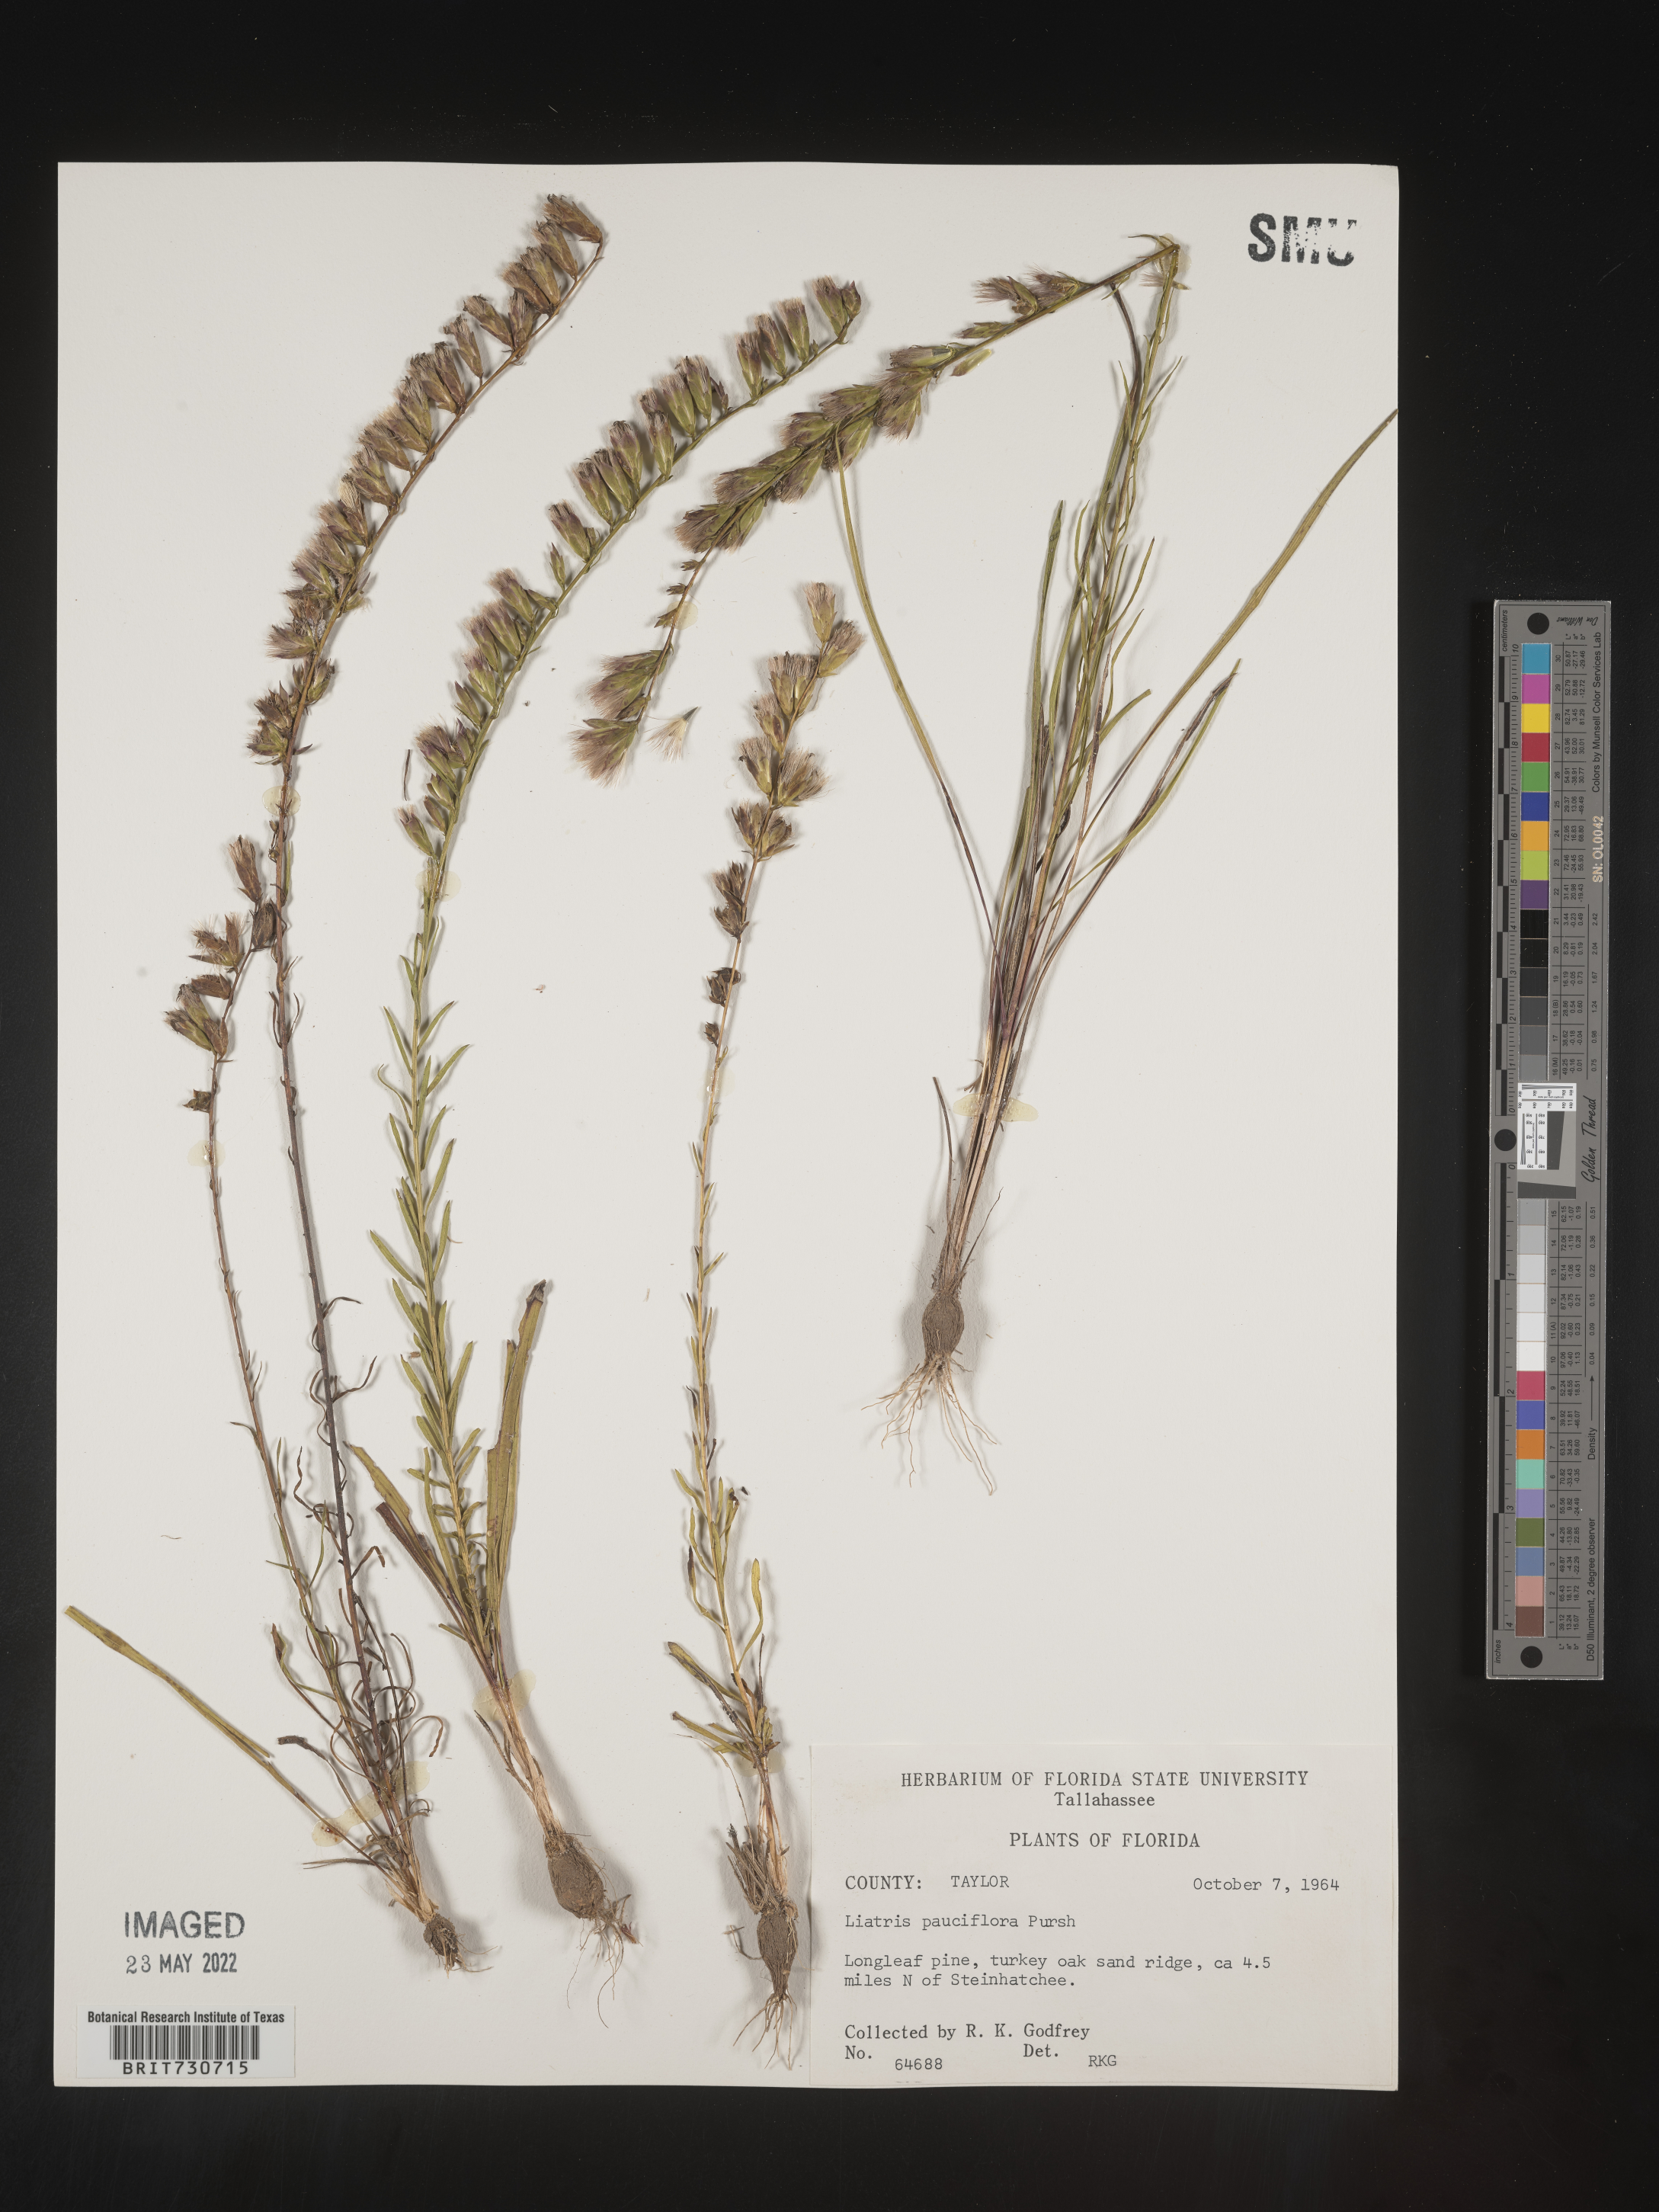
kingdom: Plantae
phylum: Tracheophyta
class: Magnoliopsida
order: Asterales
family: Asteraceae
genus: Liatris
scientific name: Liatris pauciflora
